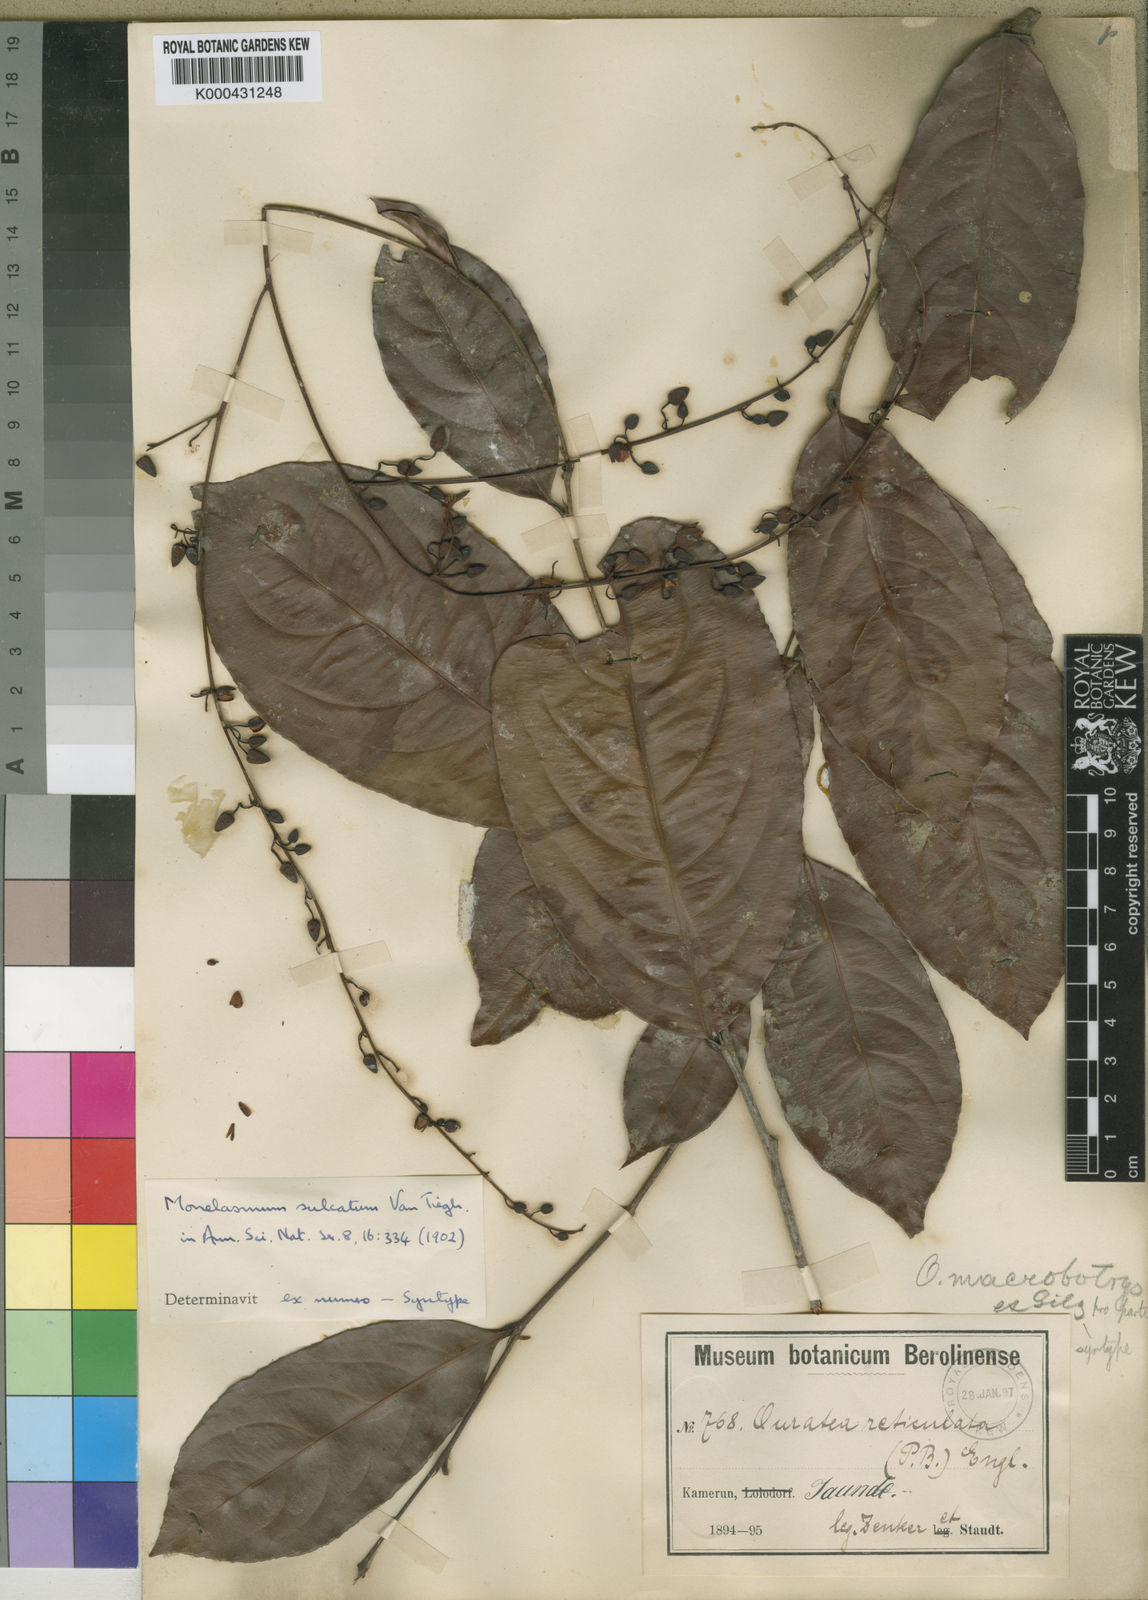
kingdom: Plantae
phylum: Tracheophyta
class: Magnoliopsida
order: Malpighiales
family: Ochnaceae
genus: Campylospermum
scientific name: Campylospermum laxiflorum
